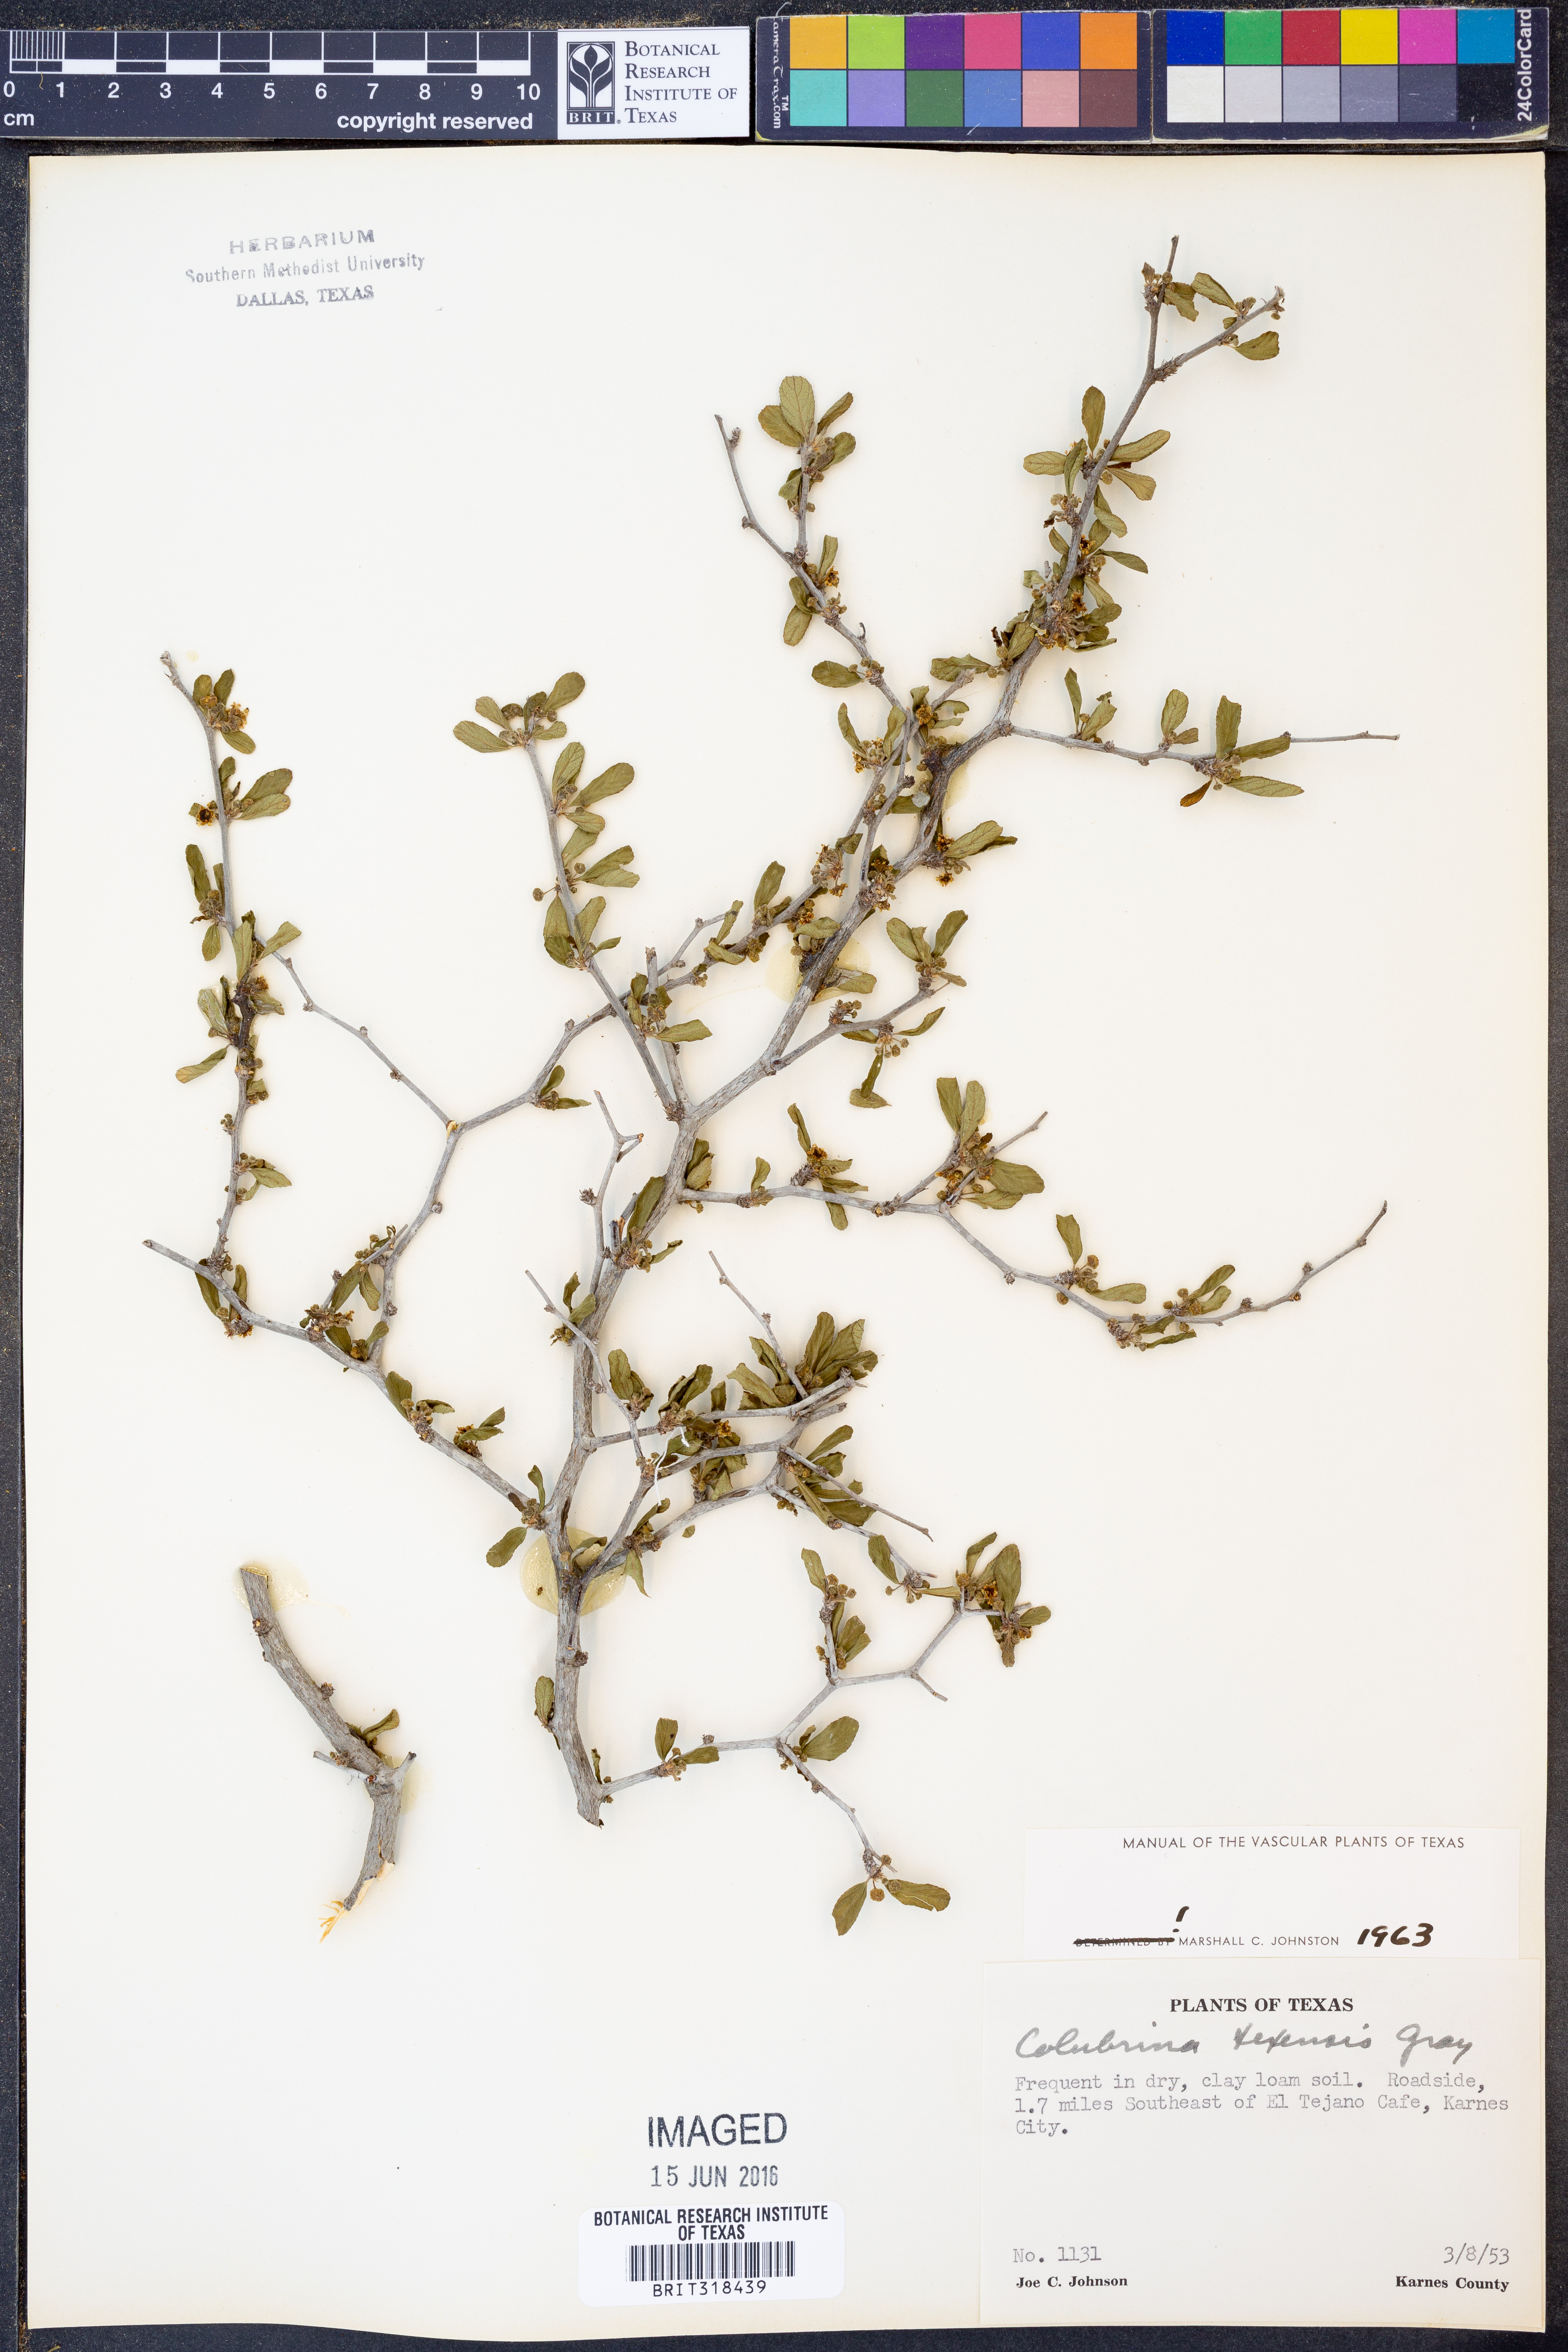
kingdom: Plantae
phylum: Tracheophyta
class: Magnoliopsida
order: Rosales
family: Rhamnaceae
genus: Colubrina
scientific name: Colubrina texensis
